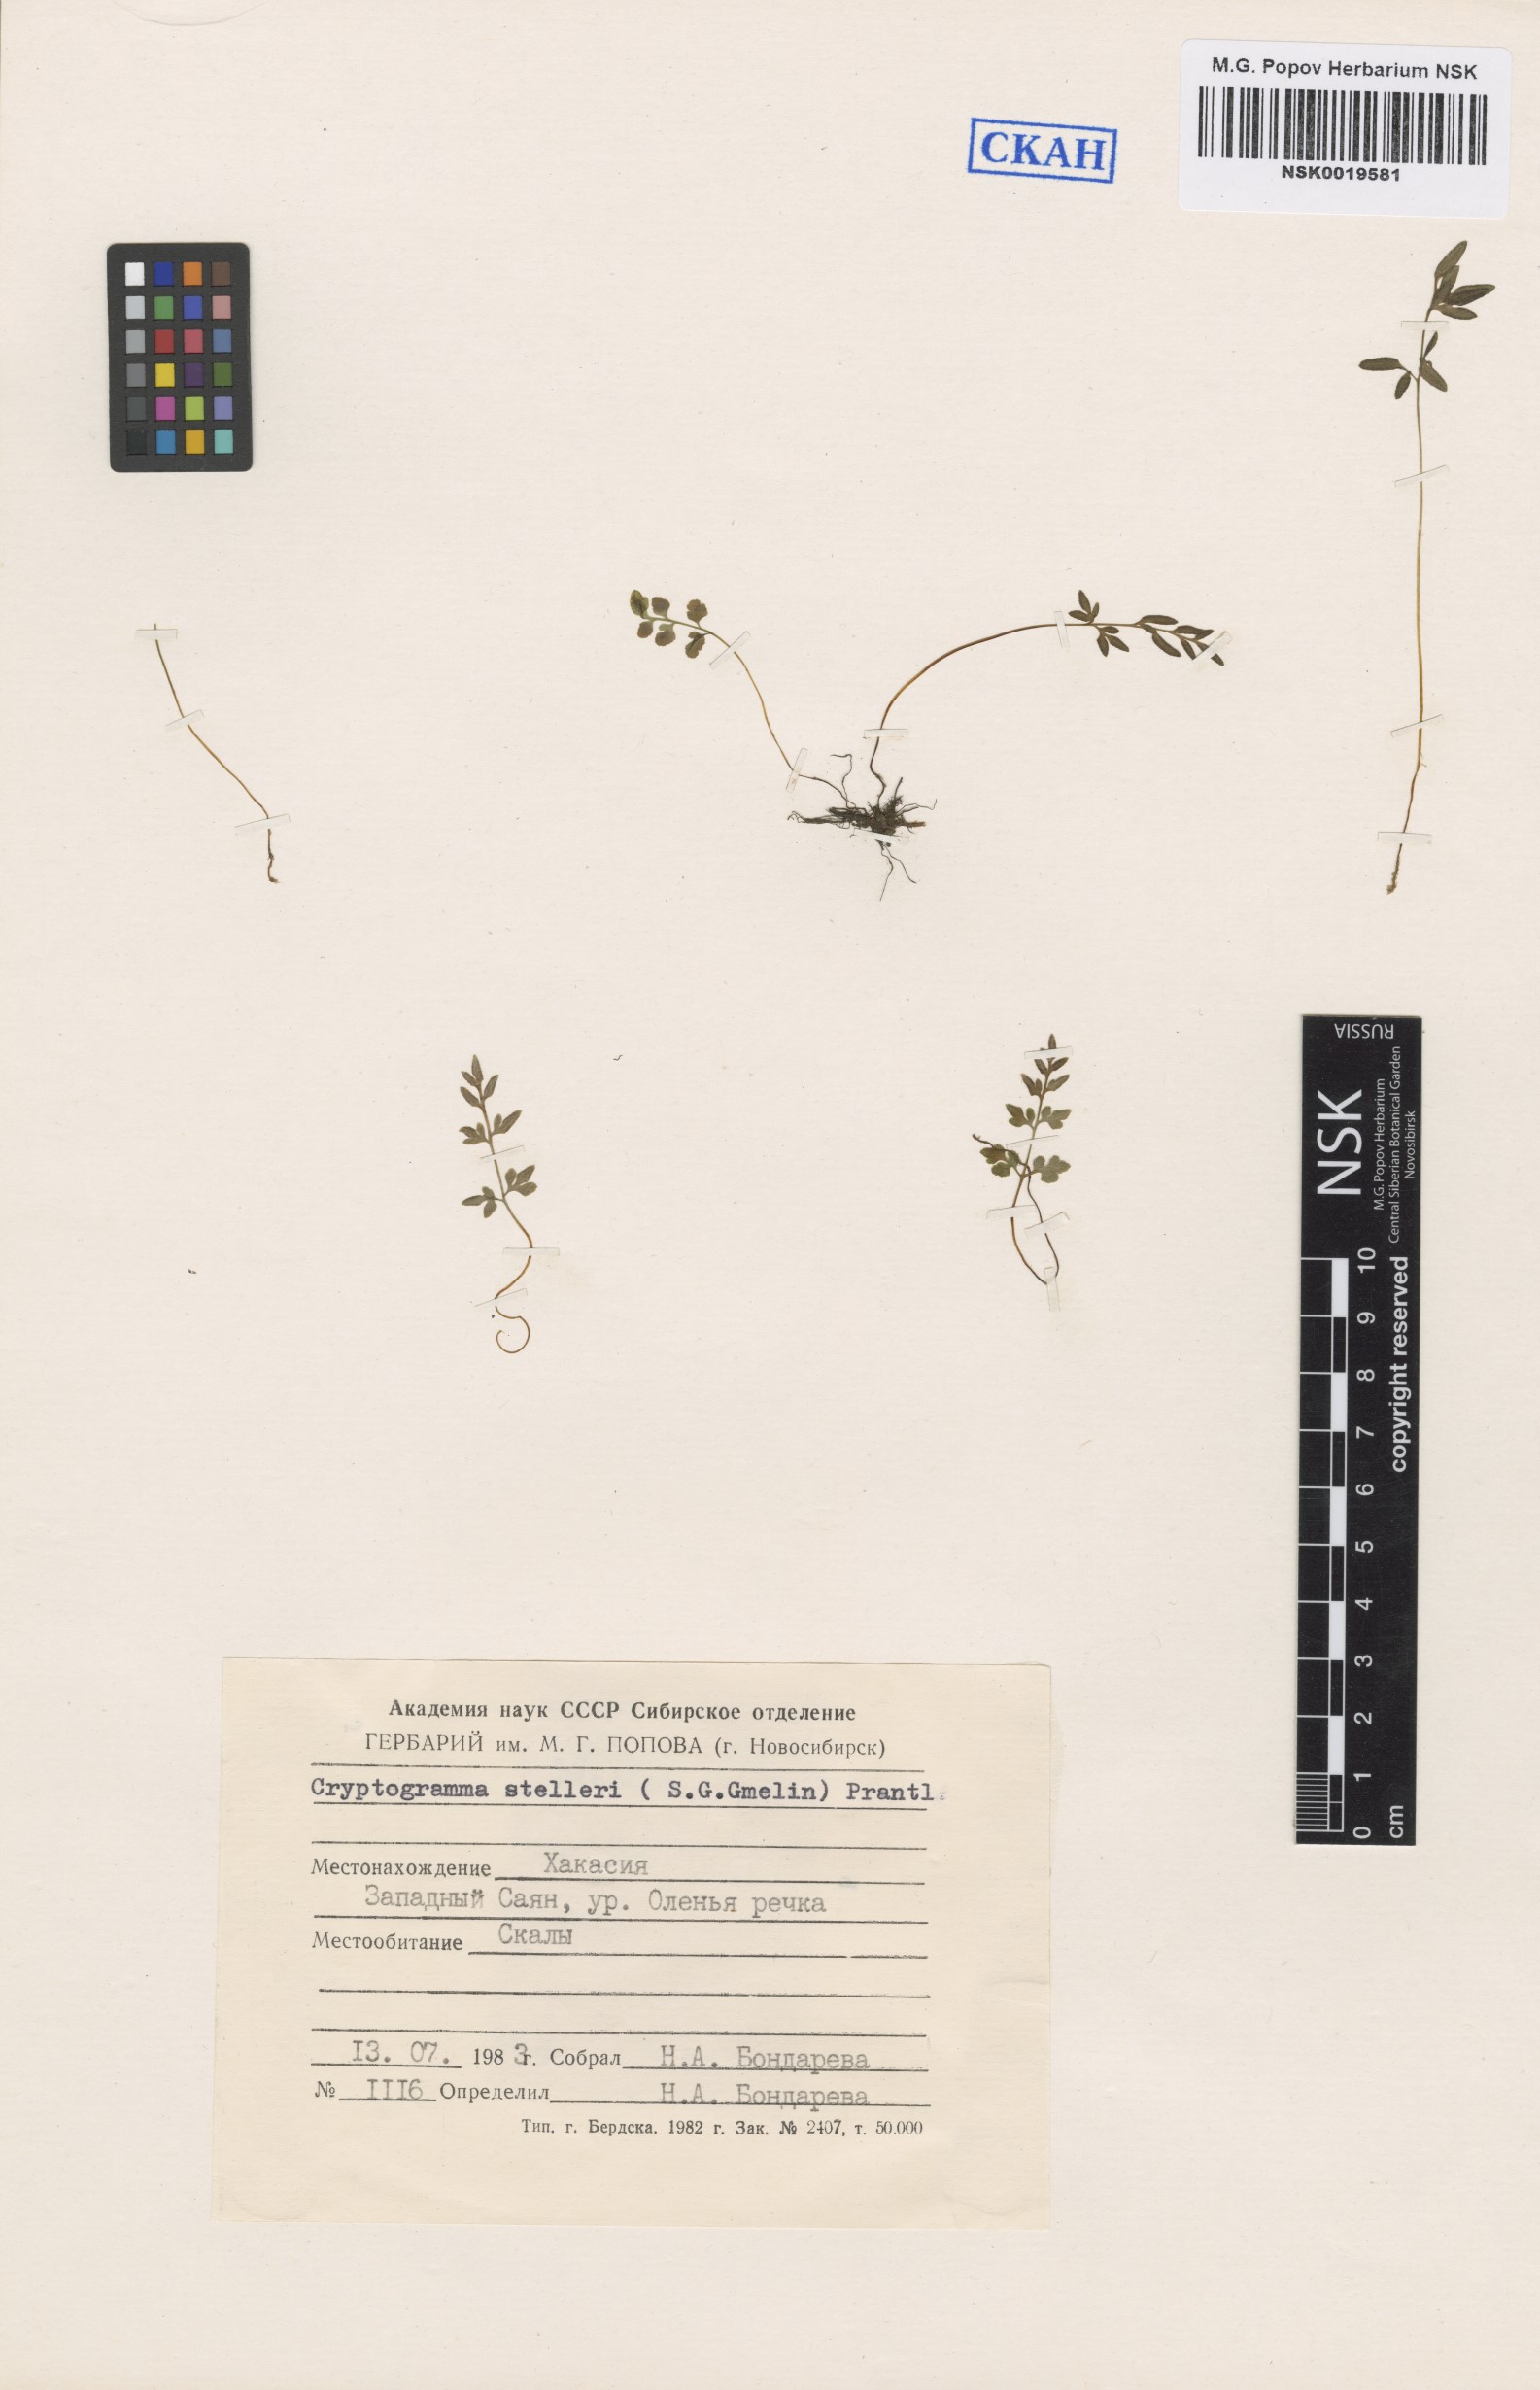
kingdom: Plantae
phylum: Tracheophyta
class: Polypodiopsida
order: Polypodiales
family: Pteridaceae
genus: Cryptogramma
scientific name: Cryptogramma stelleri
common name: Cliff-brake
